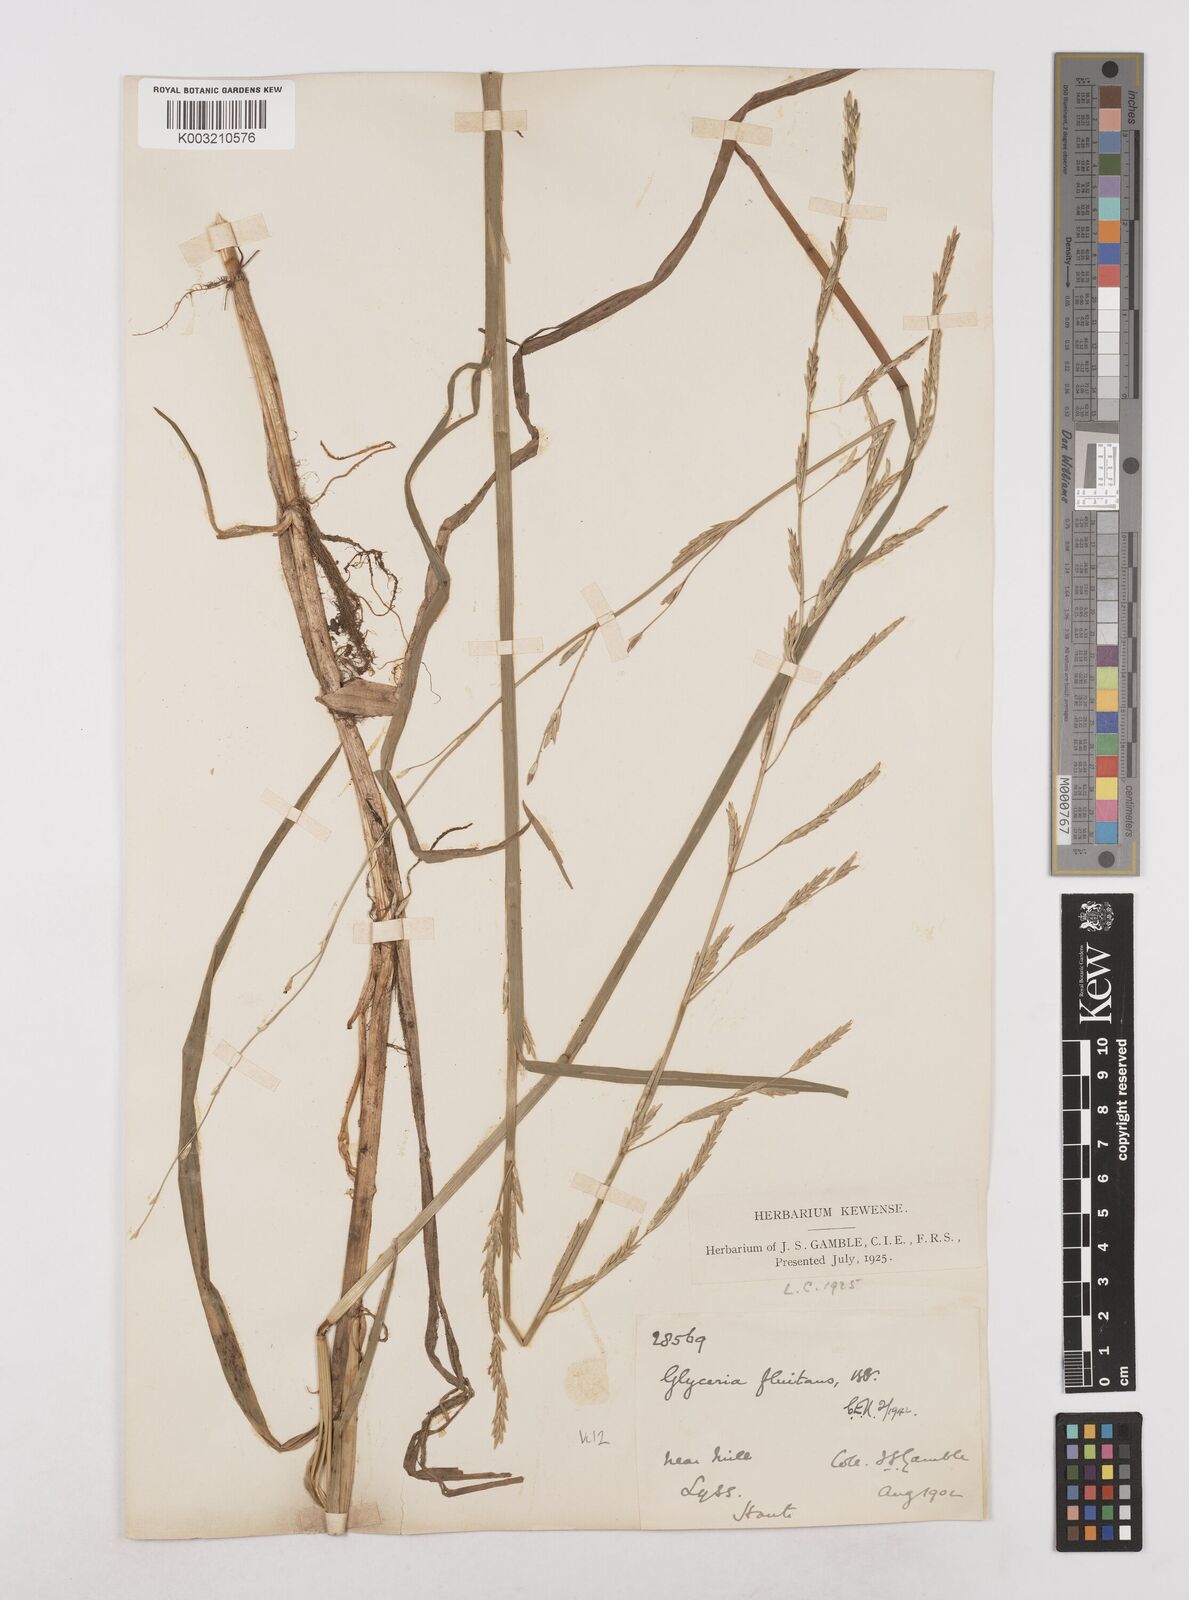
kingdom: Plantae
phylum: Tracheophyta
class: Liliopsida
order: Poales
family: Poaceae
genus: Glyceria
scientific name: Glyceria fluitans
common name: Floating sweet-grass
